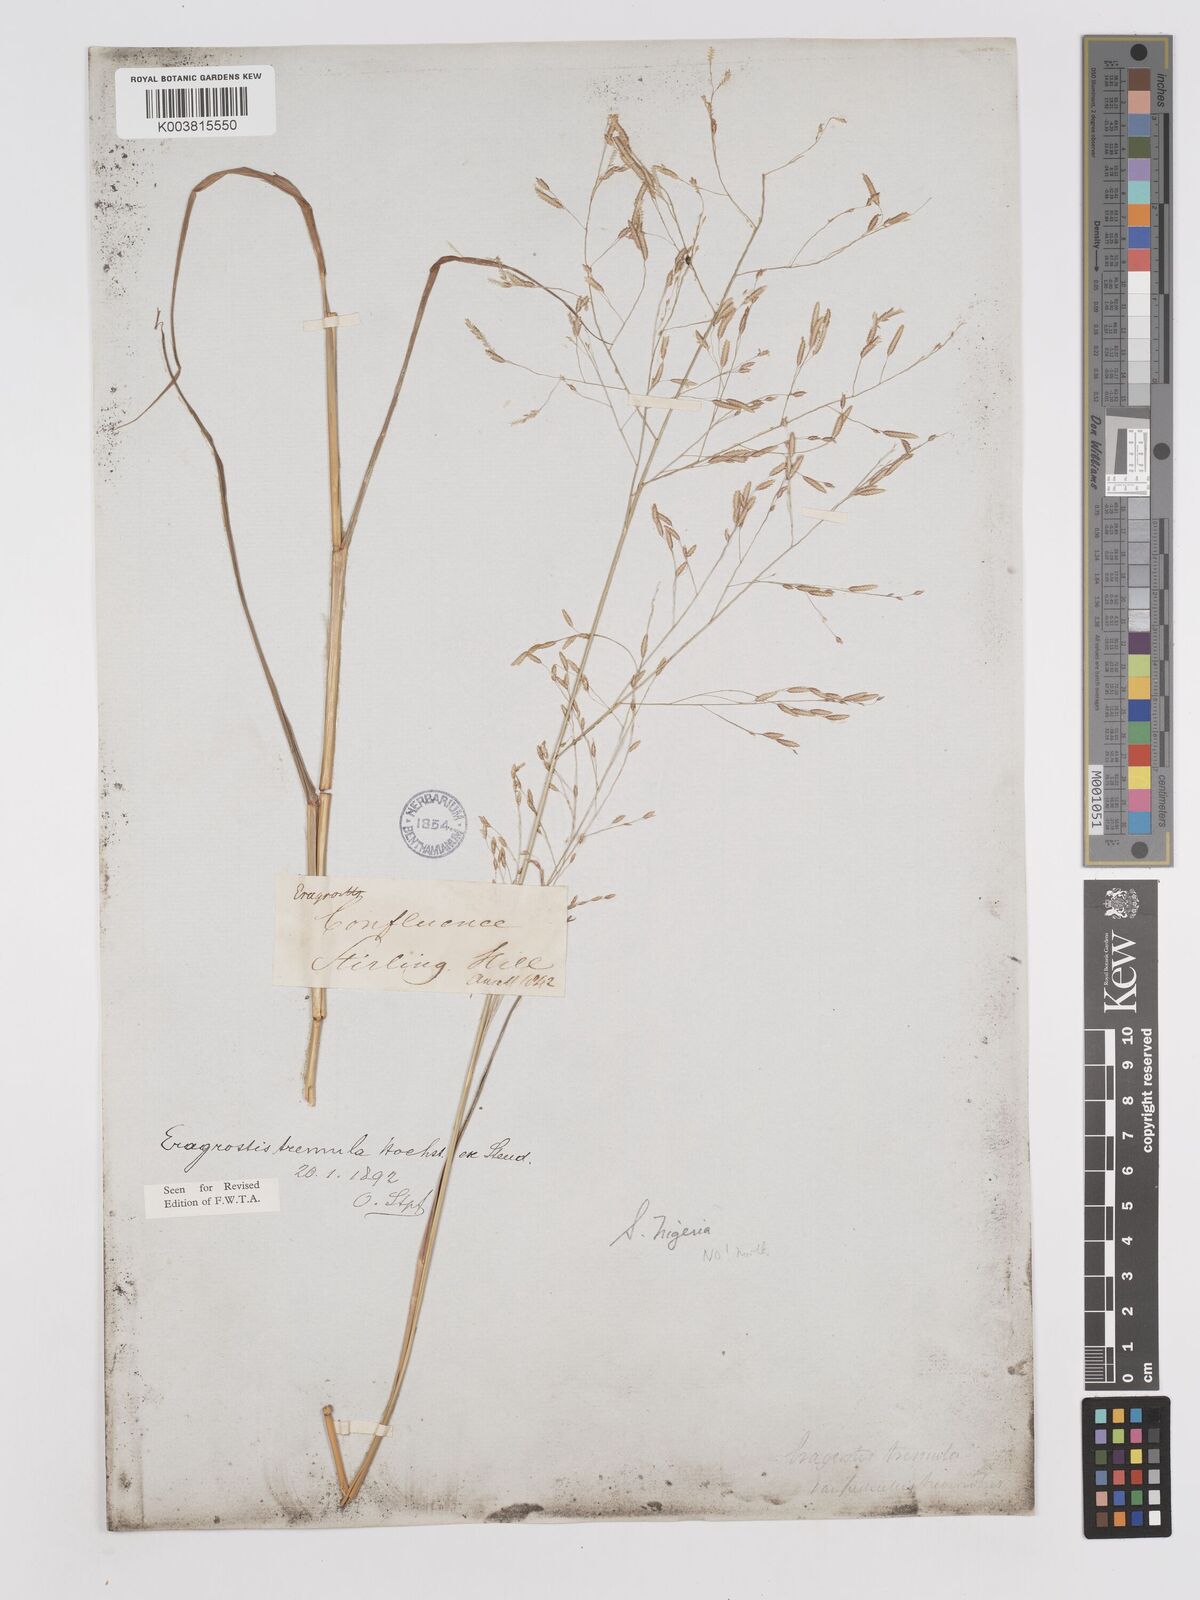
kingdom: Plantae
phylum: Tracheophyta
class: Liliopsida
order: Poales
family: Poaceae
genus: Eragrostis
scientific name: Eragrostis tremula
